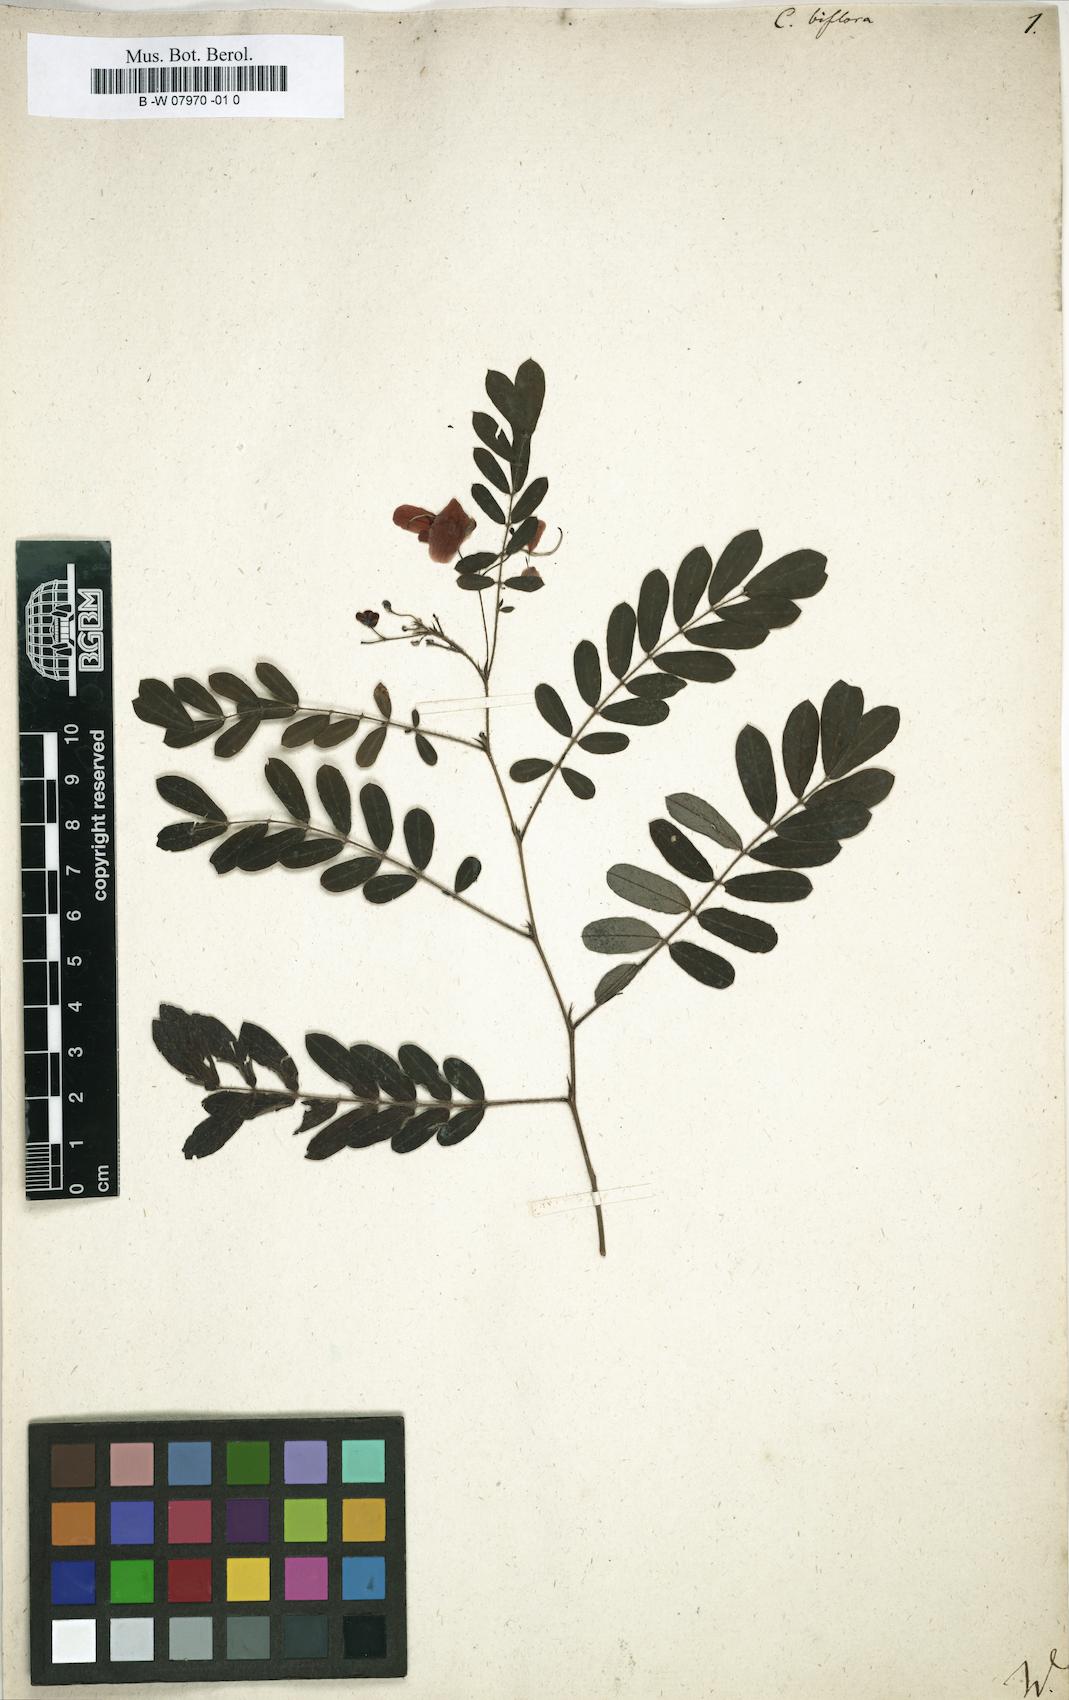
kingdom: Plantae
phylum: Tracheophyta
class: Magnoliopsida
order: Fabales
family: Fabaceae
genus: Senna
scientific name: Senna pallida
